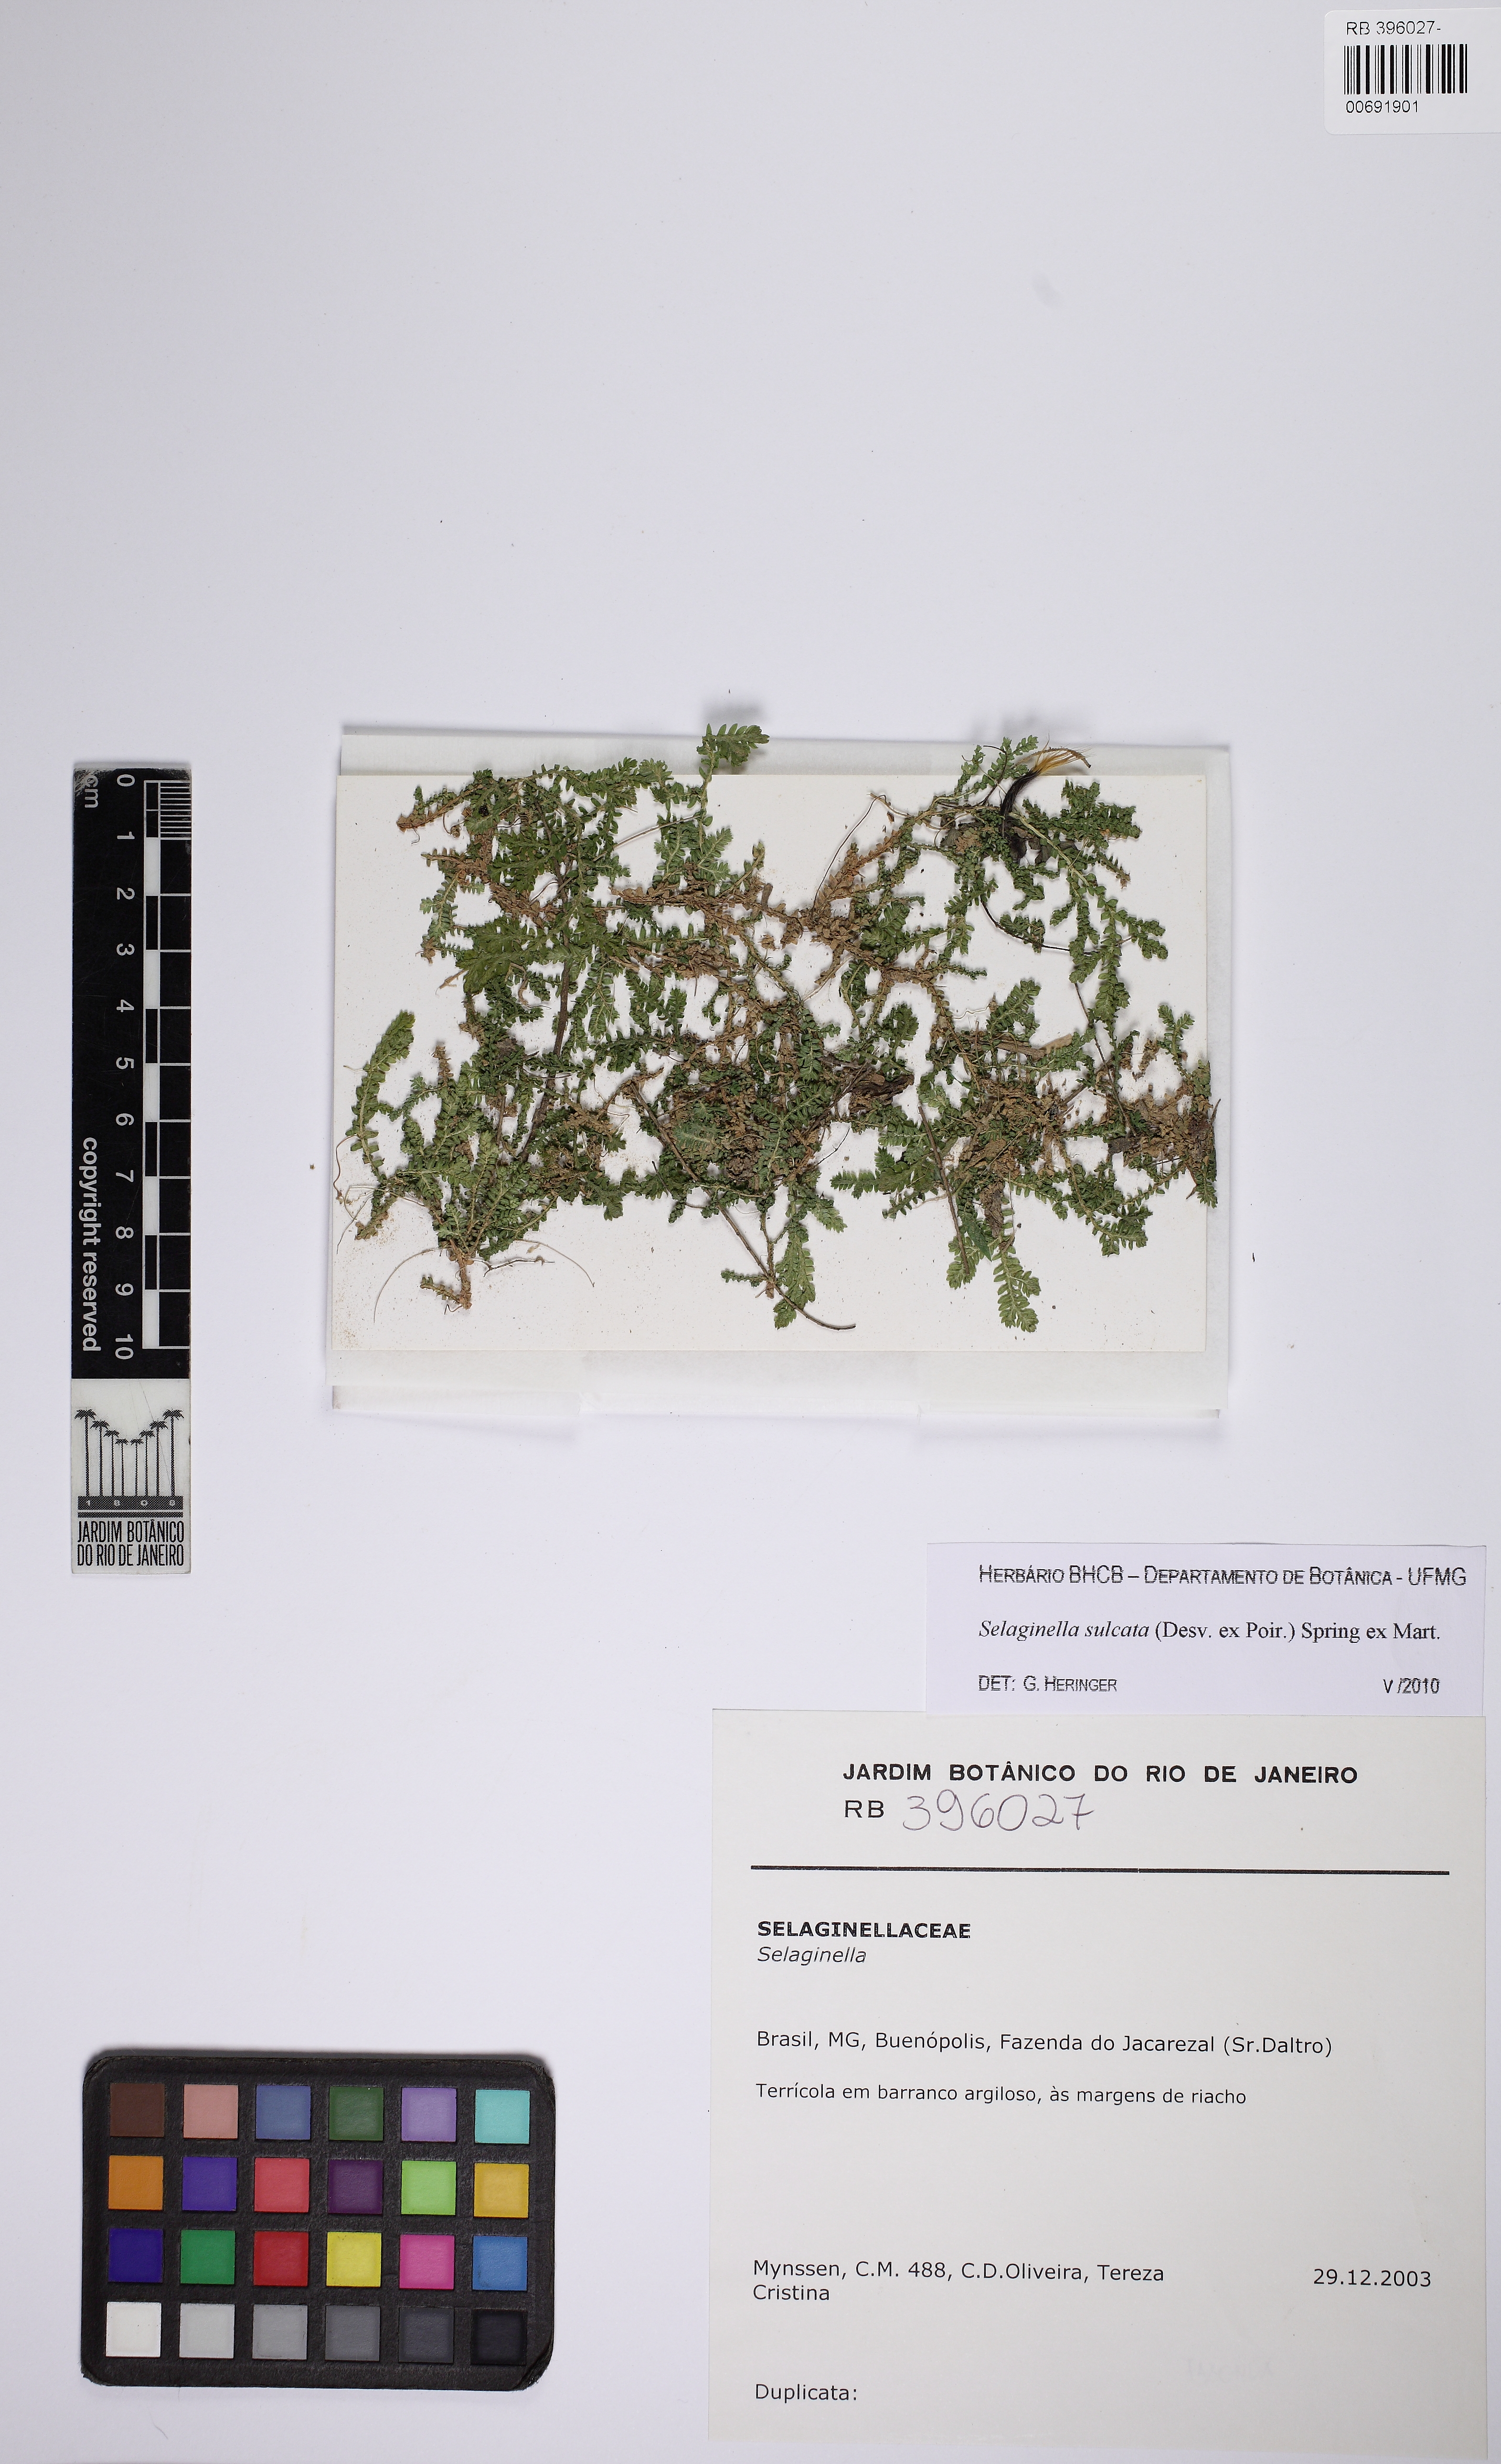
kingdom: Plantae
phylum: Tracheophyta
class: Lycopodiopsida
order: Selaginellales
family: Selaginellaceae
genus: Selaginella
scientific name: Selaginella sulcata
